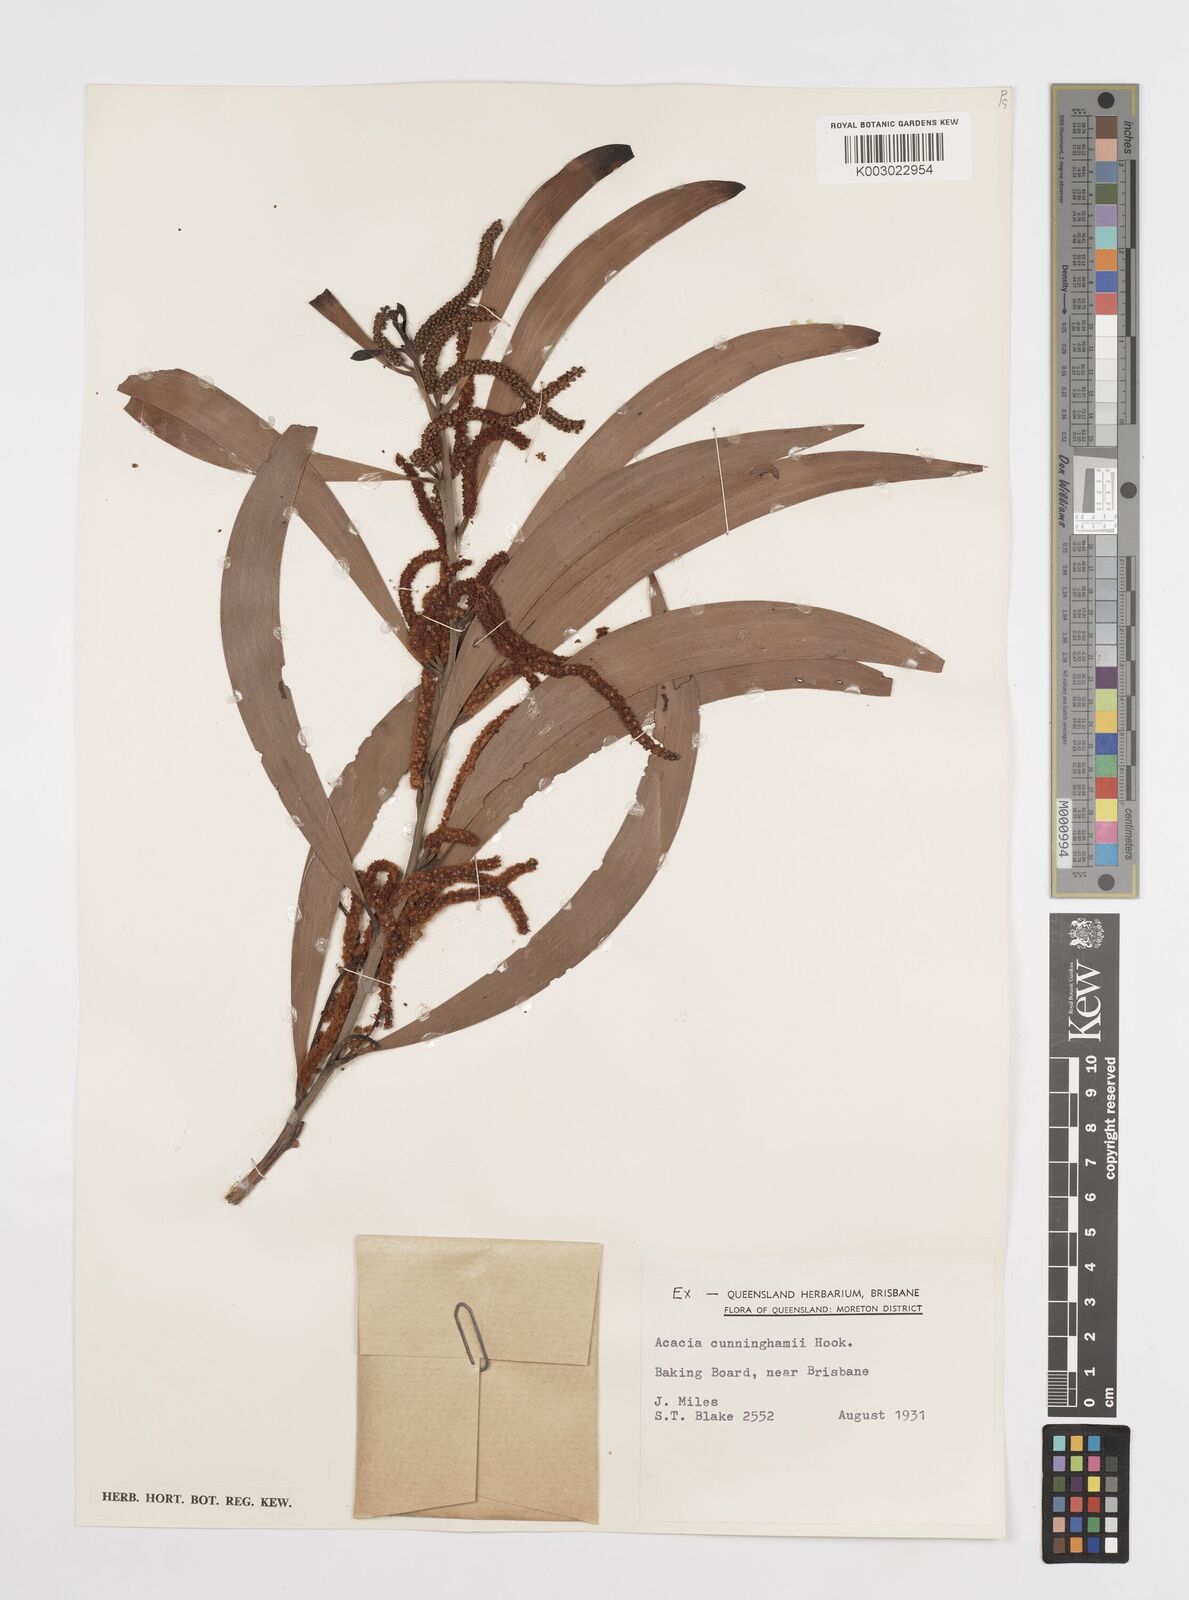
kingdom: Plantae
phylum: Tracheophyta
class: Magnoliopsida
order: Fabales
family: Fabaceae
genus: Acacia
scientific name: Acacia longispicata
